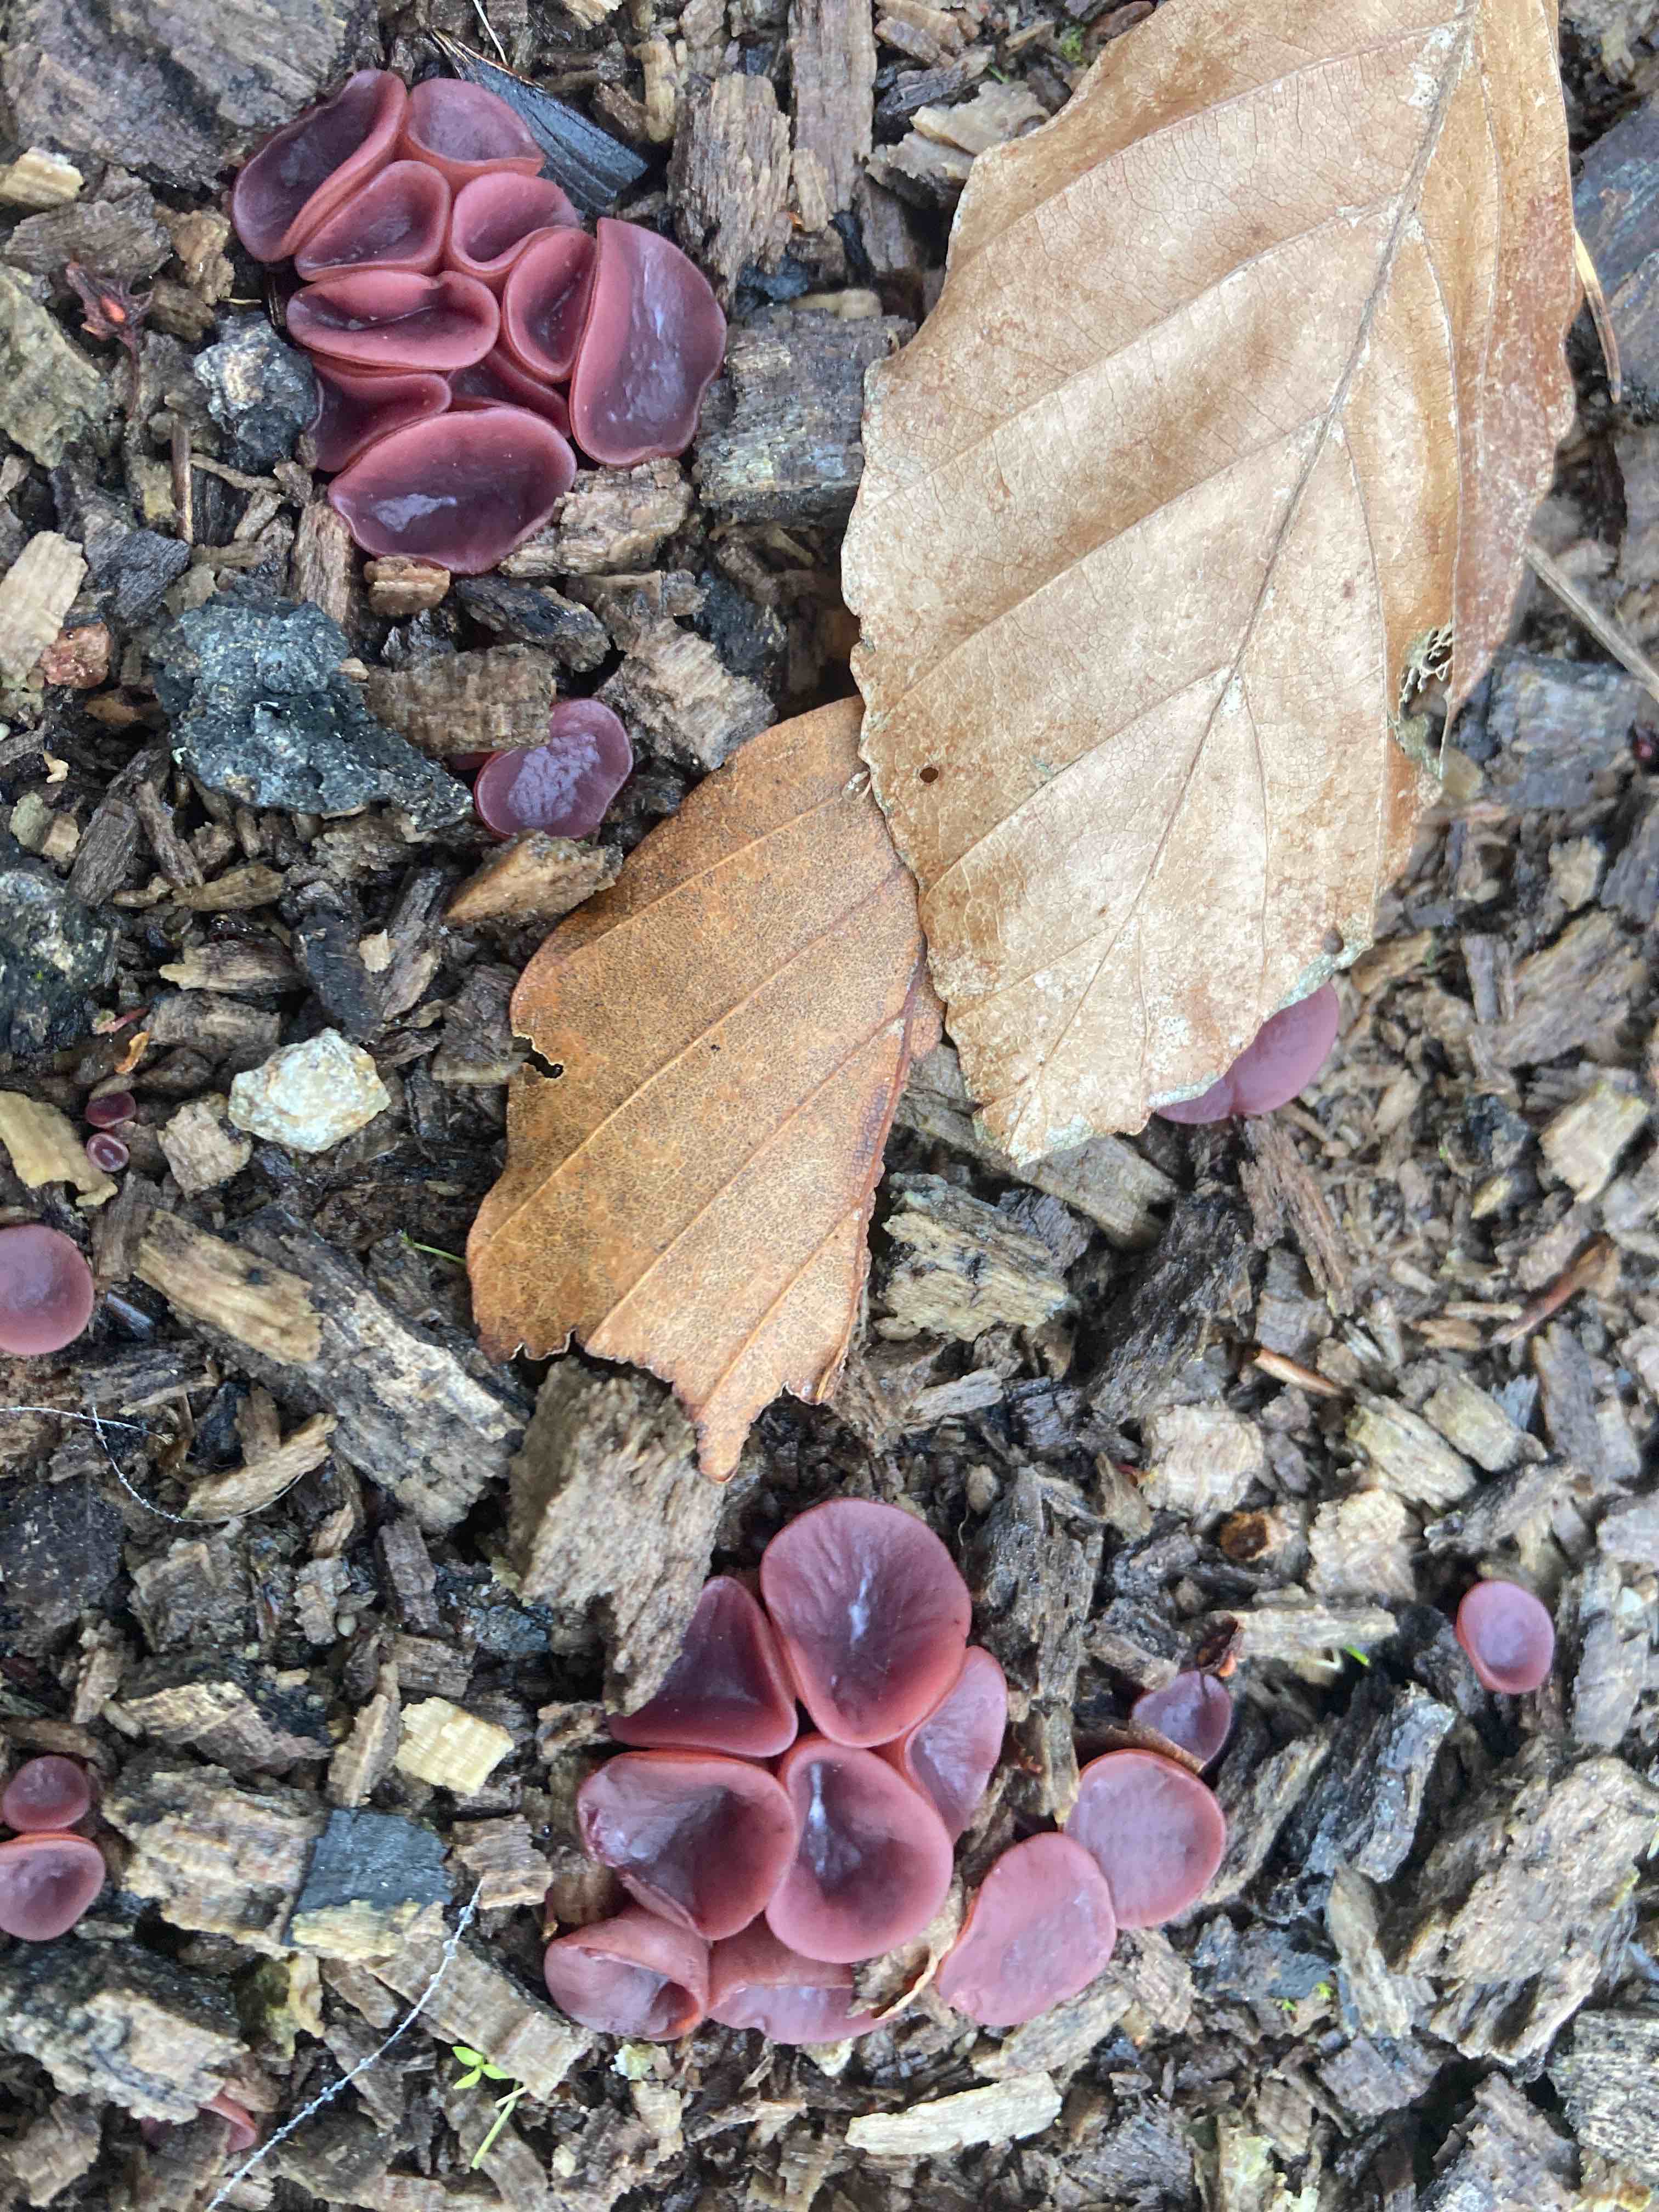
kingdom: Fungi
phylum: Ascomycota
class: Leotiomycetes
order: Helotiales
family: Gelatinodiscaceae
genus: Ascocoryne
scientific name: Ascocoryne cylichnium
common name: stor sejskive
